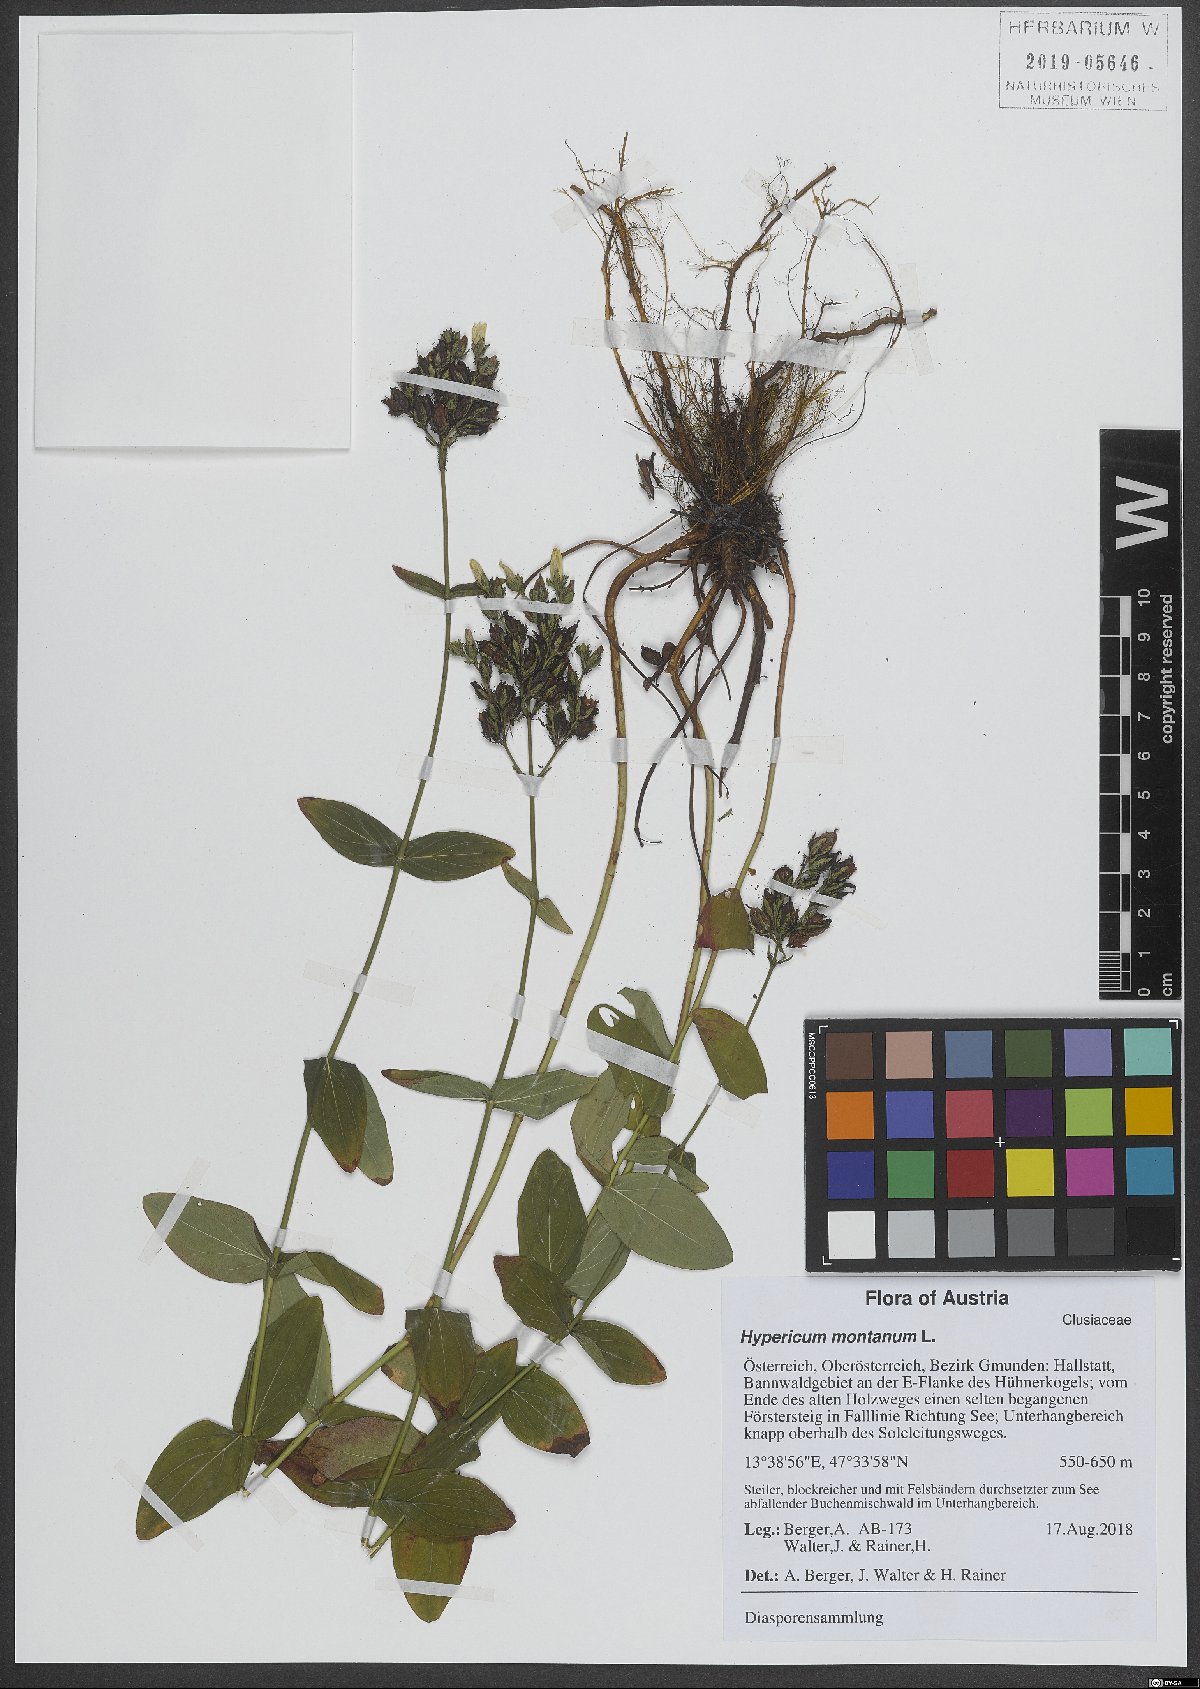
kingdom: Plantae
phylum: Tracheophyta
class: Magnoliopsida
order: Malpighiales
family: Hypericaceae
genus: Hypericum
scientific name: Hypericum montanum
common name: Pale st. john's-wort
